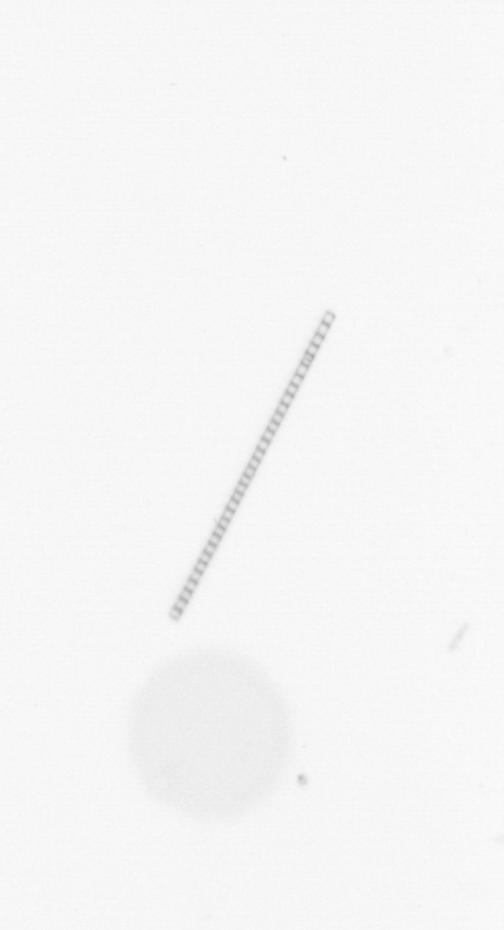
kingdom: Chromista
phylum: Ochrophyta
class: Bacillariophyceae
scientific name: Bacillariophyceae
